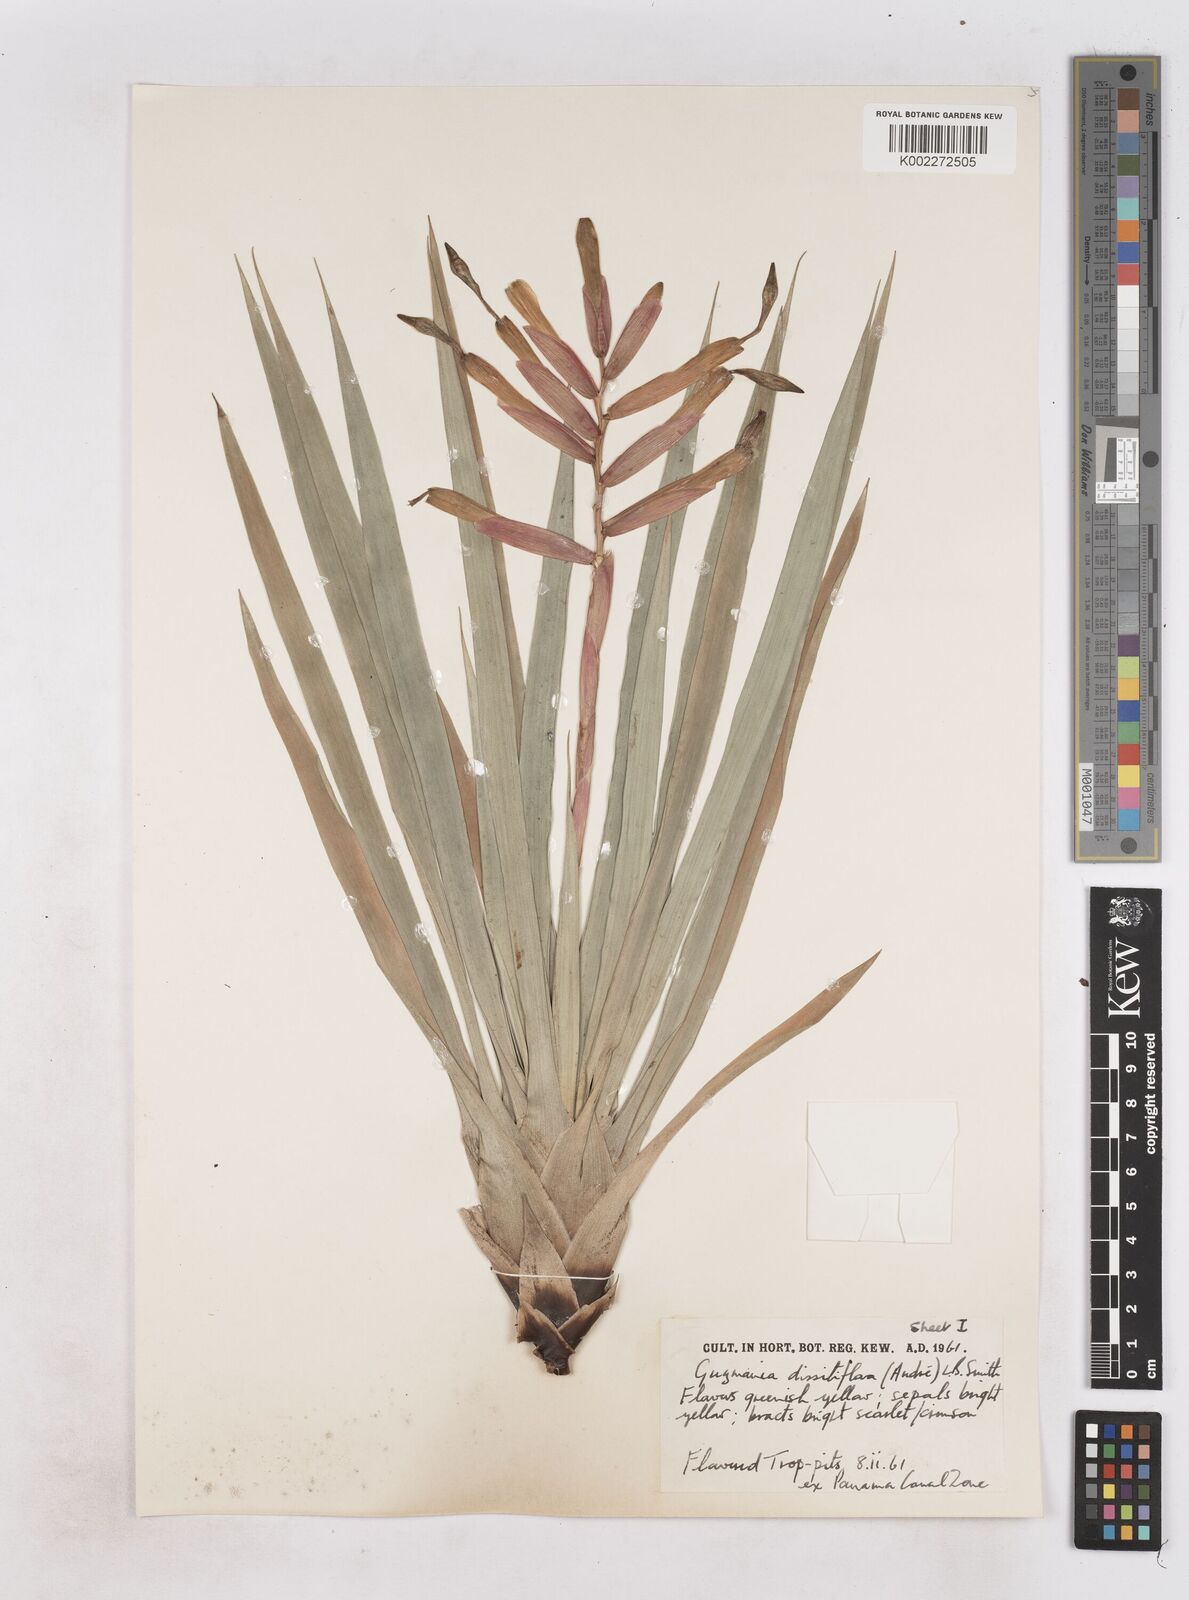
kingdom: Plantae
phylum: Tracheophyta
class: Liliopsida
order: Poales
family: Bromeliaceae
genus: Guzmania
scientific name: Guzmania dissitiflora
